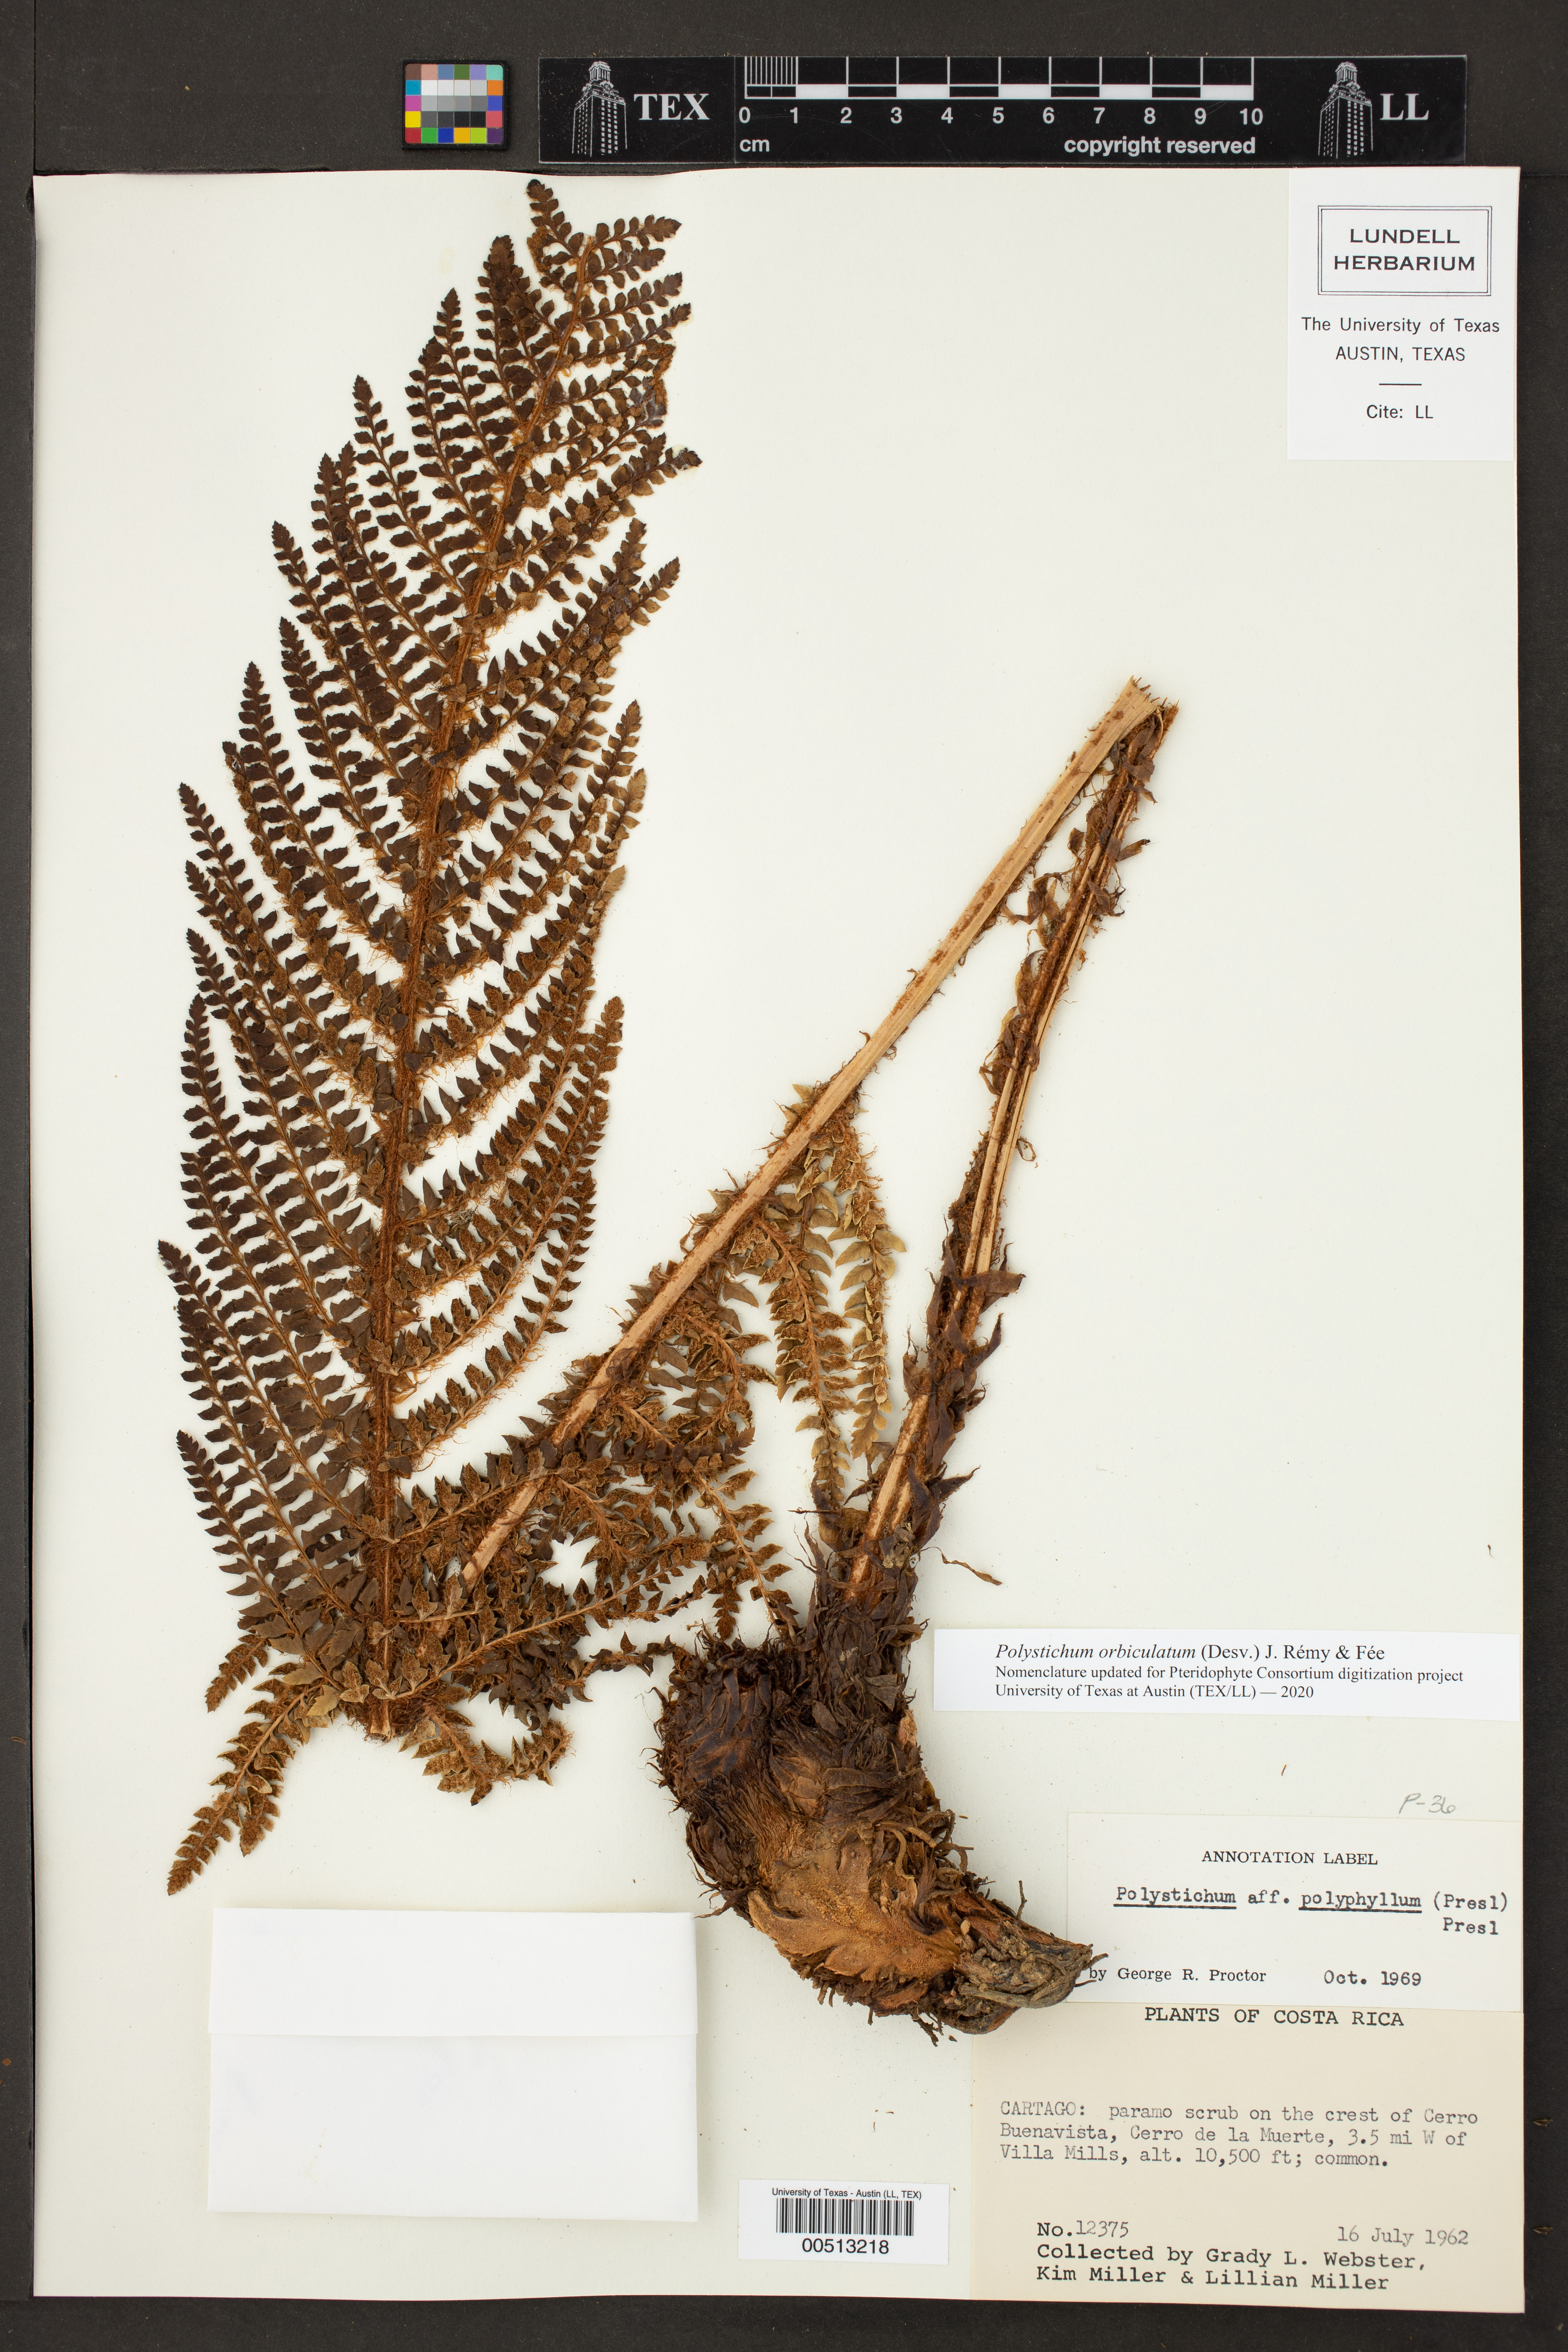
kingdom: Plantae
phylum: Tracheophyta
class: Polypodiopsida
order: Polypodiales
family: Dryopteridaceae
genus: Polystichum
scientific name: Polystichum orbiculatum
